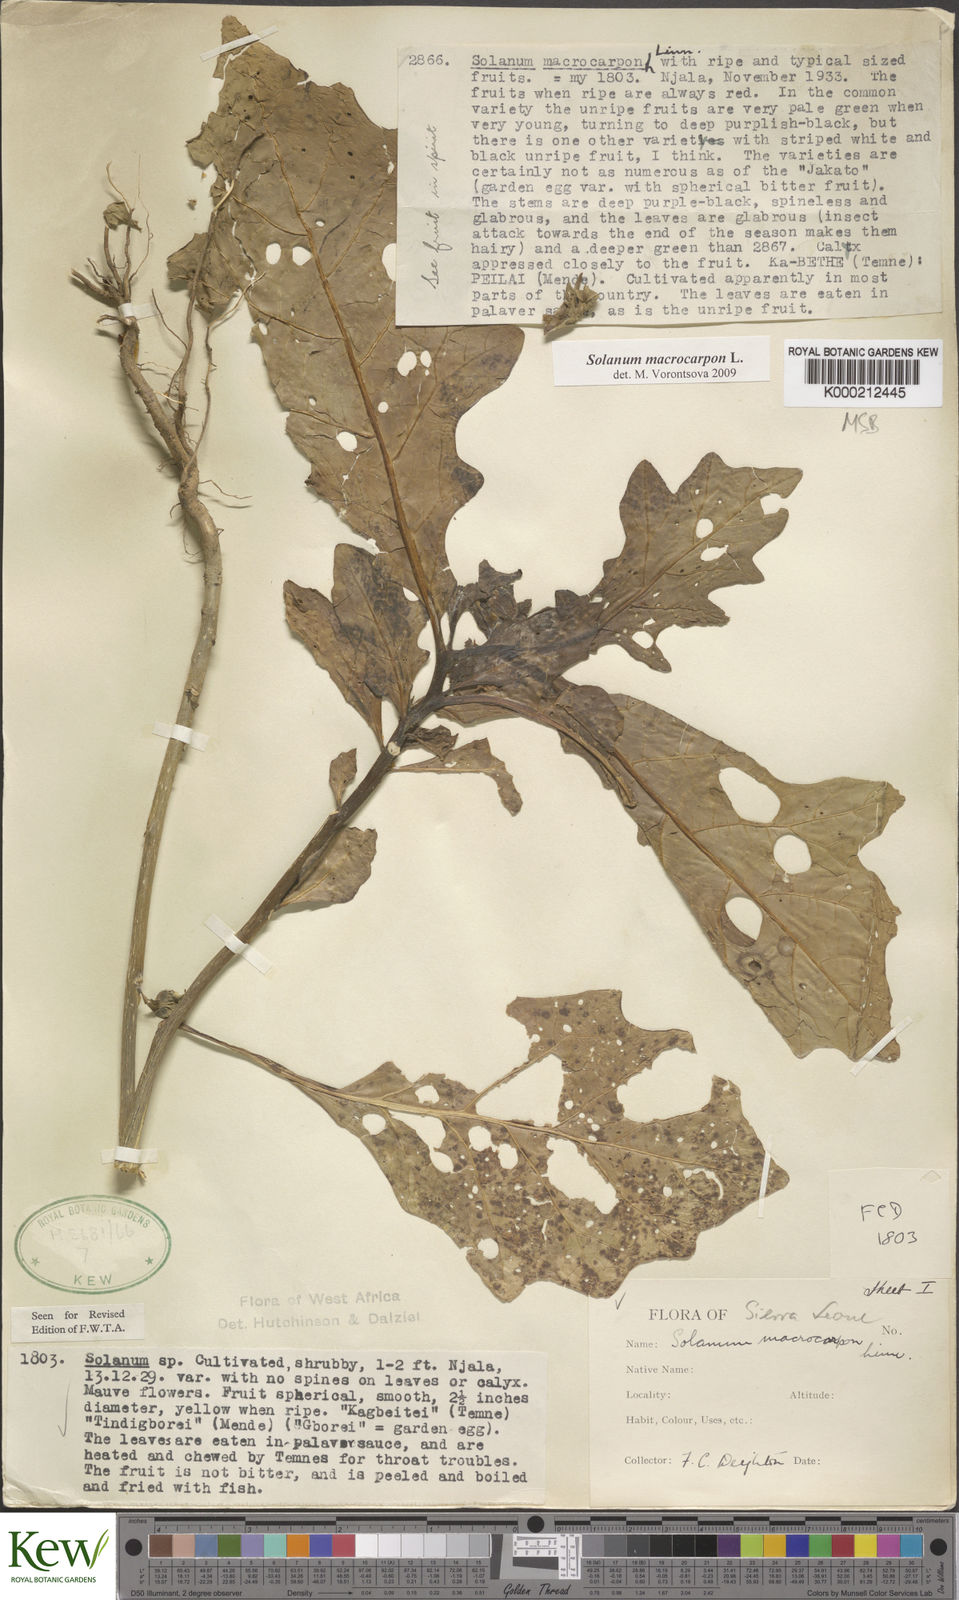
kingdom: Plantae
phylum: Tracheophyta
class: Magnoliopsida
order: Solanales
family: Solanaceae
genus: Solanum
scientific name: Solanum macrocarpon
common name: African eggplant
